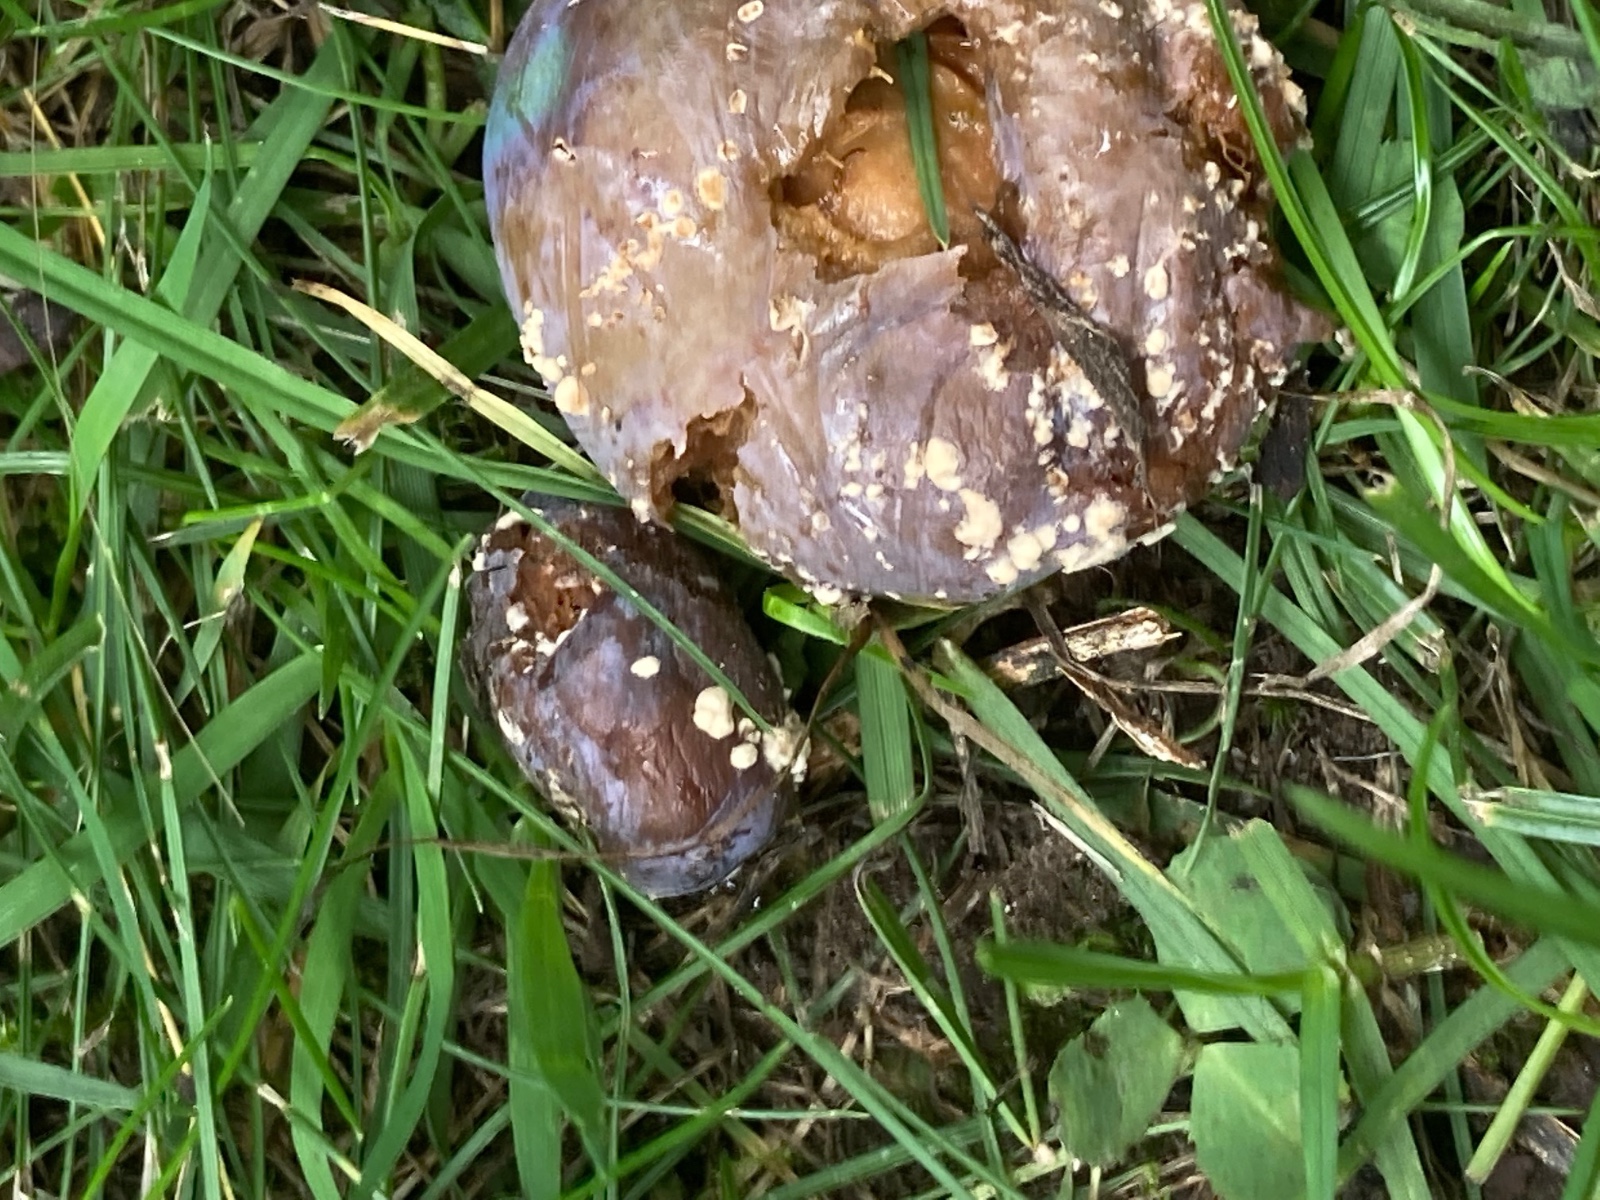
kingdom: Fungi
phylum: Ascomycota
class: Leotiomycetes
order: Helotiales
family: Sclerotiniaceae
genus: Monilinia
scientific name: Monilinia laxa
